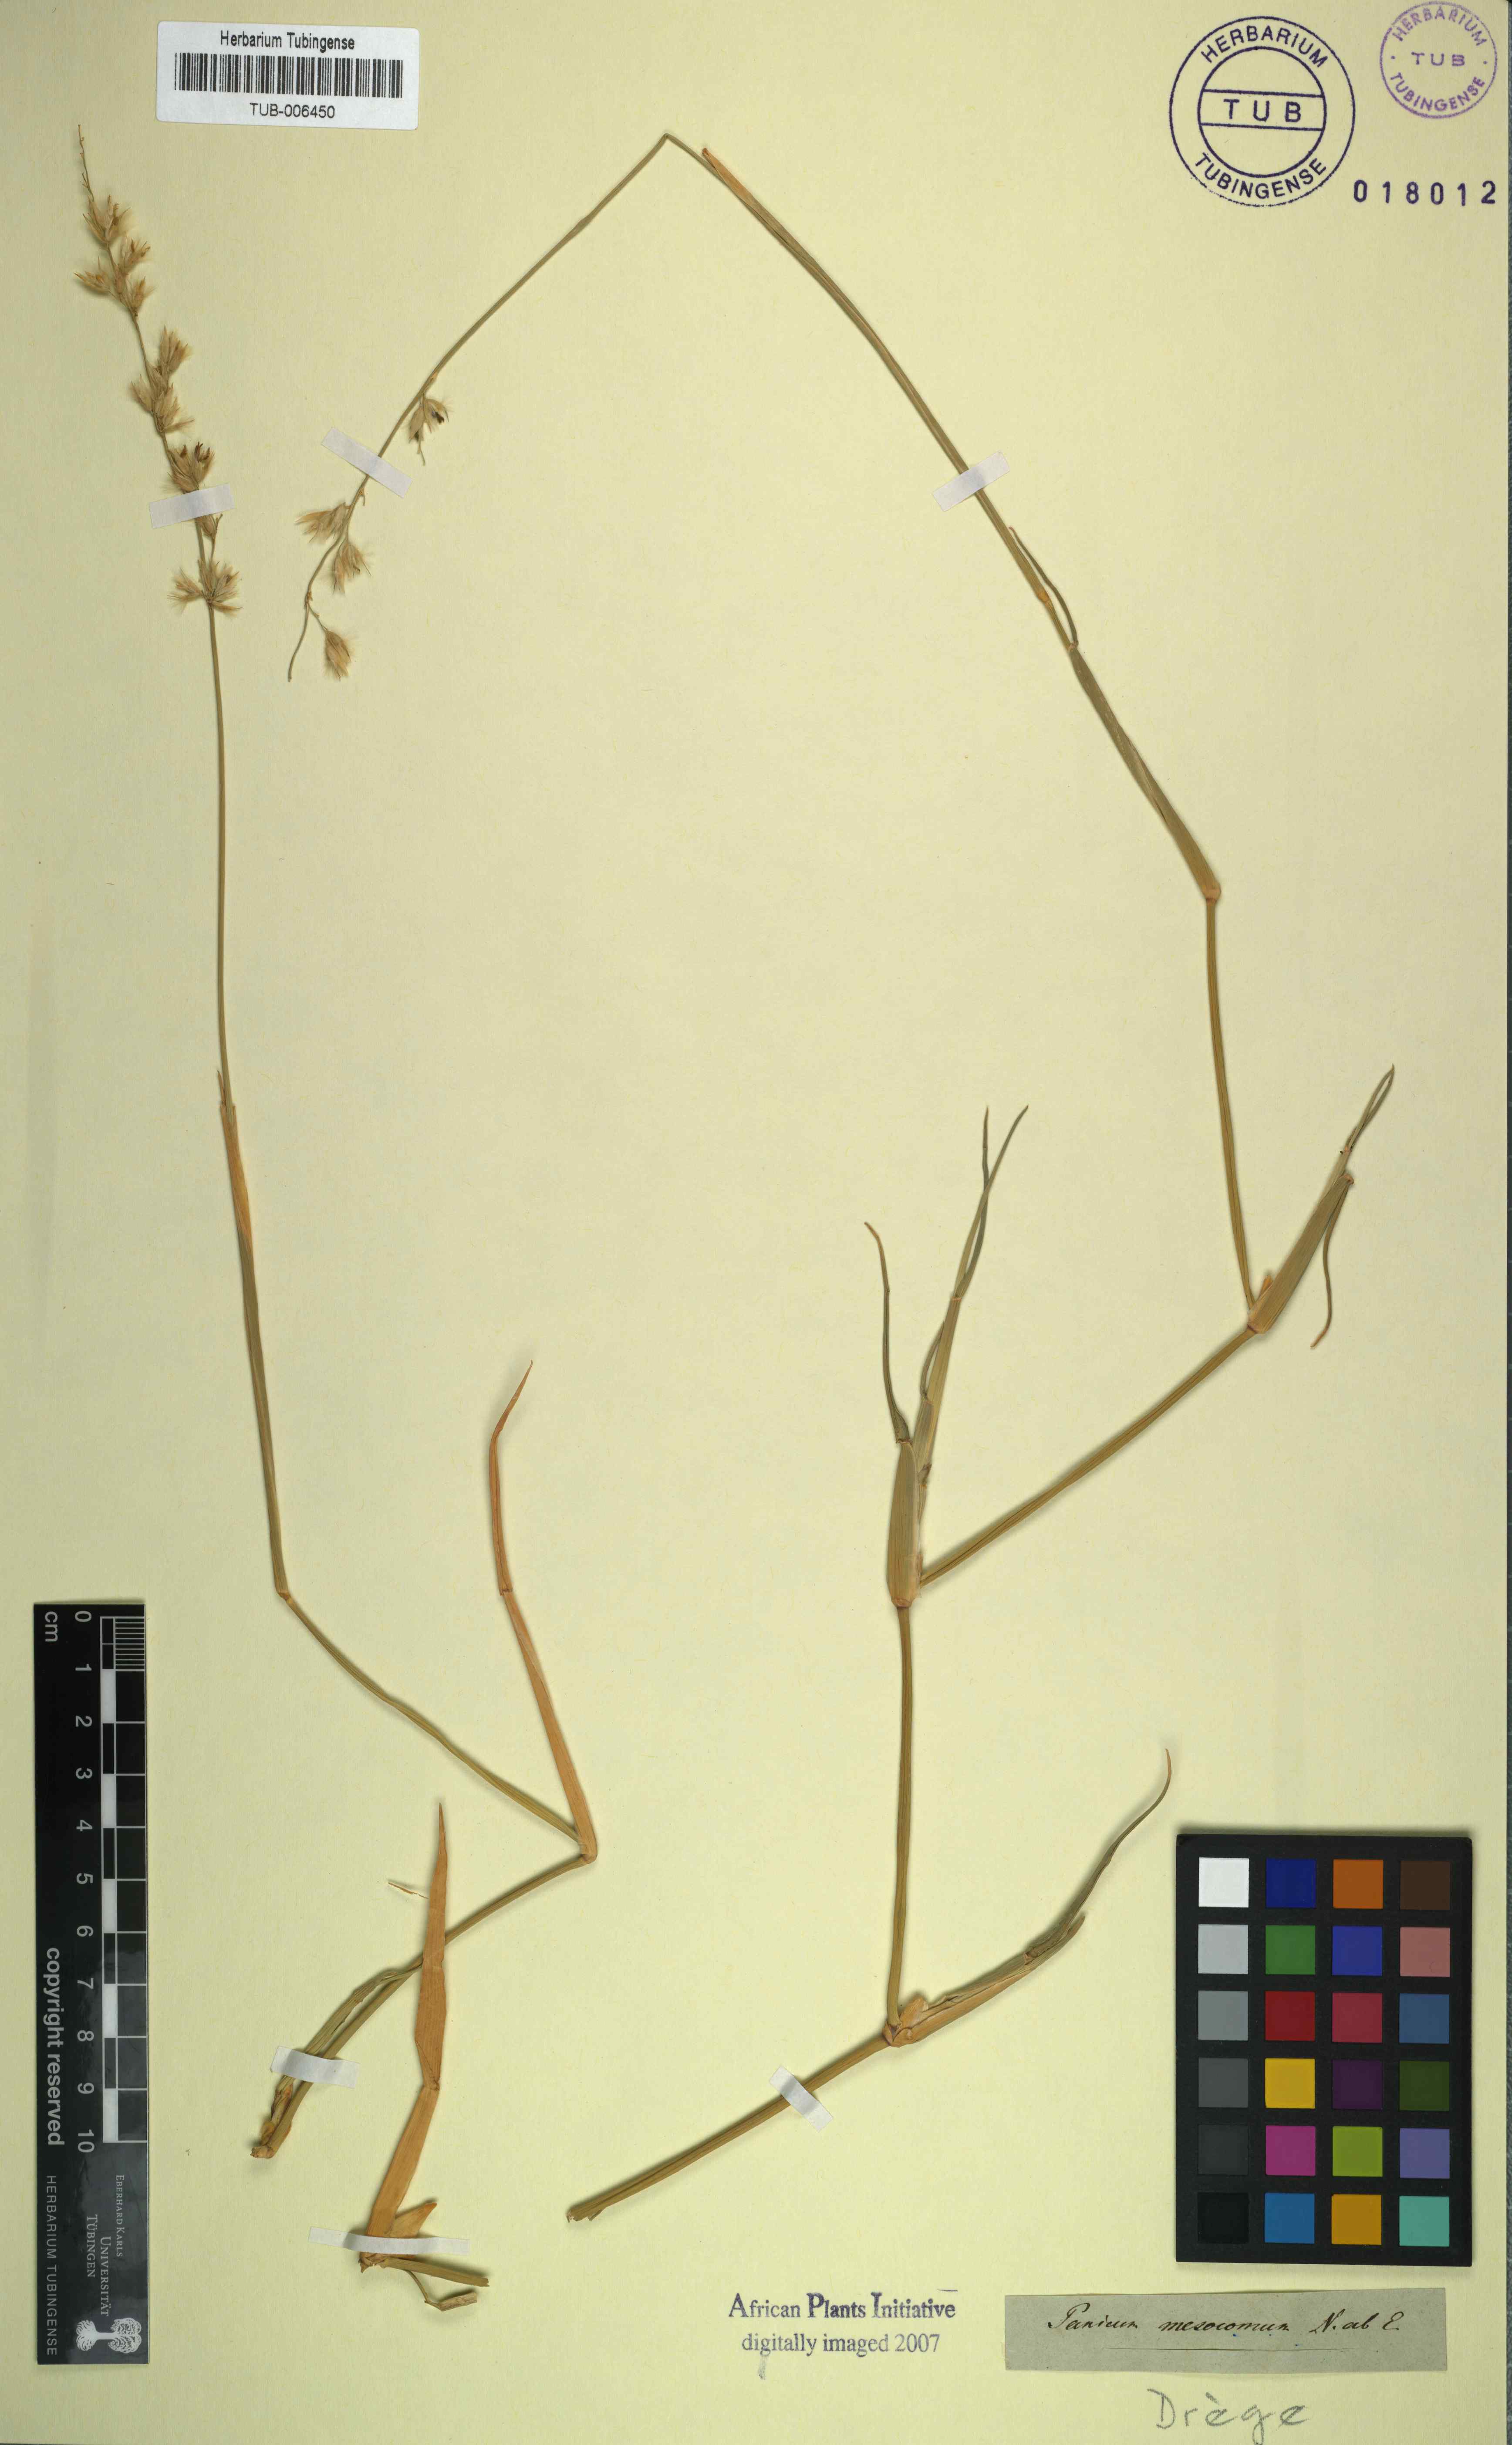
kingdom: Plantae
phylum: Tracheophyta
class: Liliopsida
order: Poales
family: Poaceae
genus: Urochloa
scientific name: Urochloa Brachiaria mesocoma
